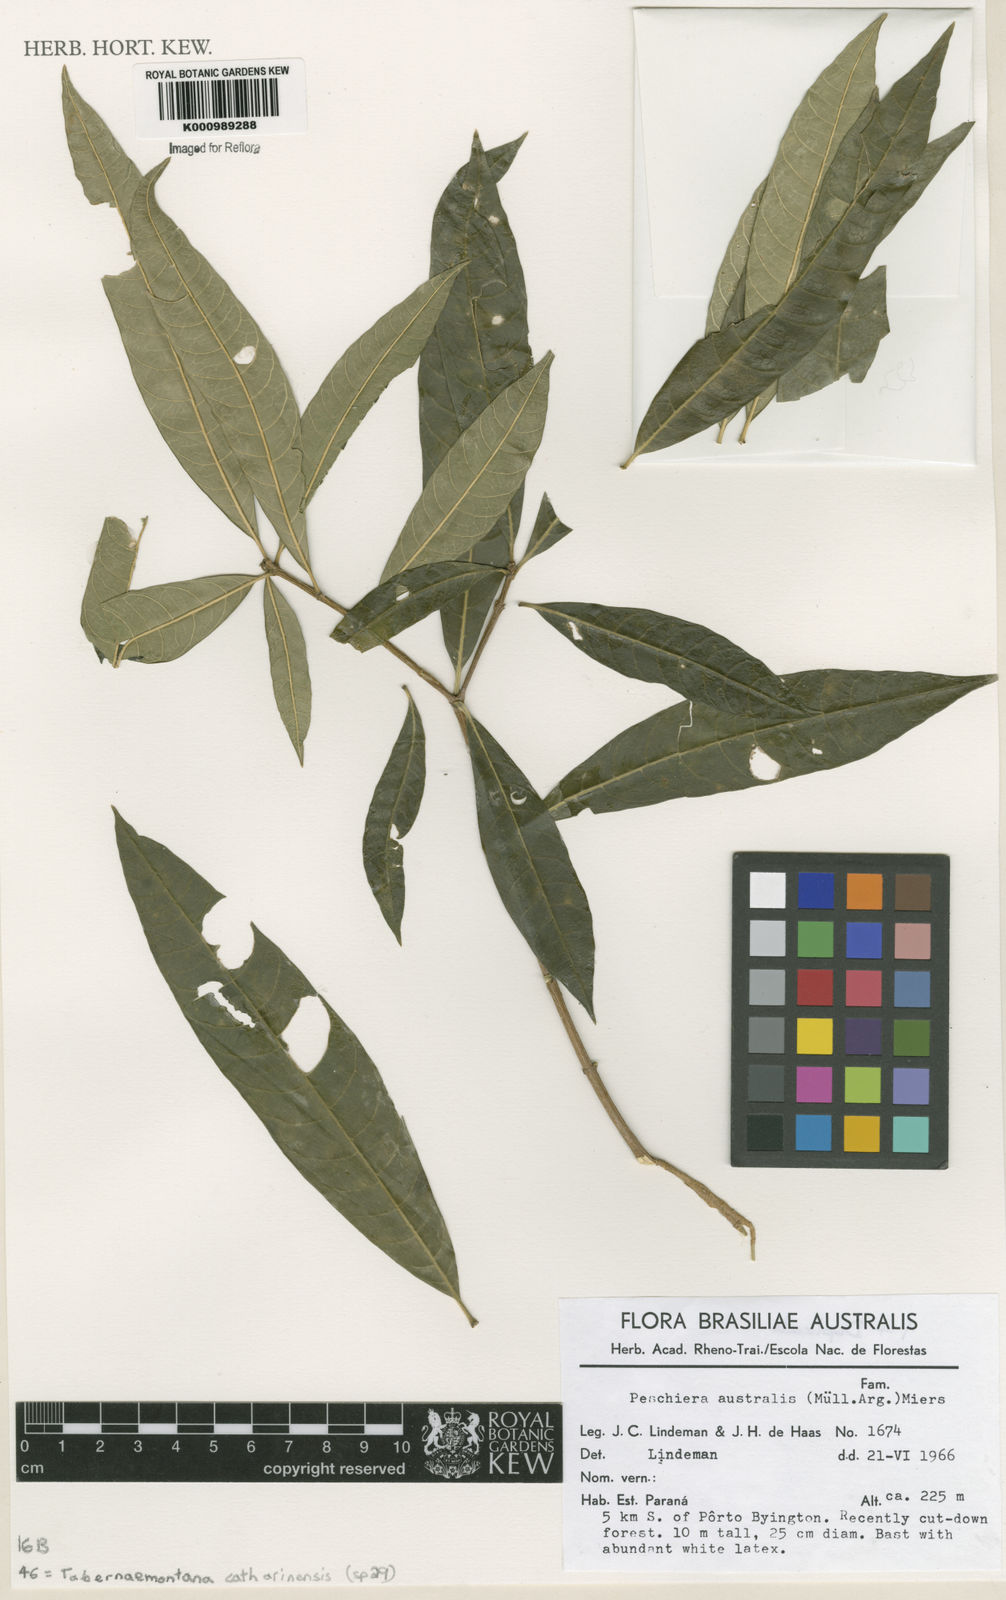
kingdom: Plantae
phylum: Tracheophyta
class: Magnoliopsida
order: Gentianales
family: Apocynaceae
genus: Tabernaemontana
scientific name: Tabernaemontana catharinensis
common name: Pinwheel-flower
